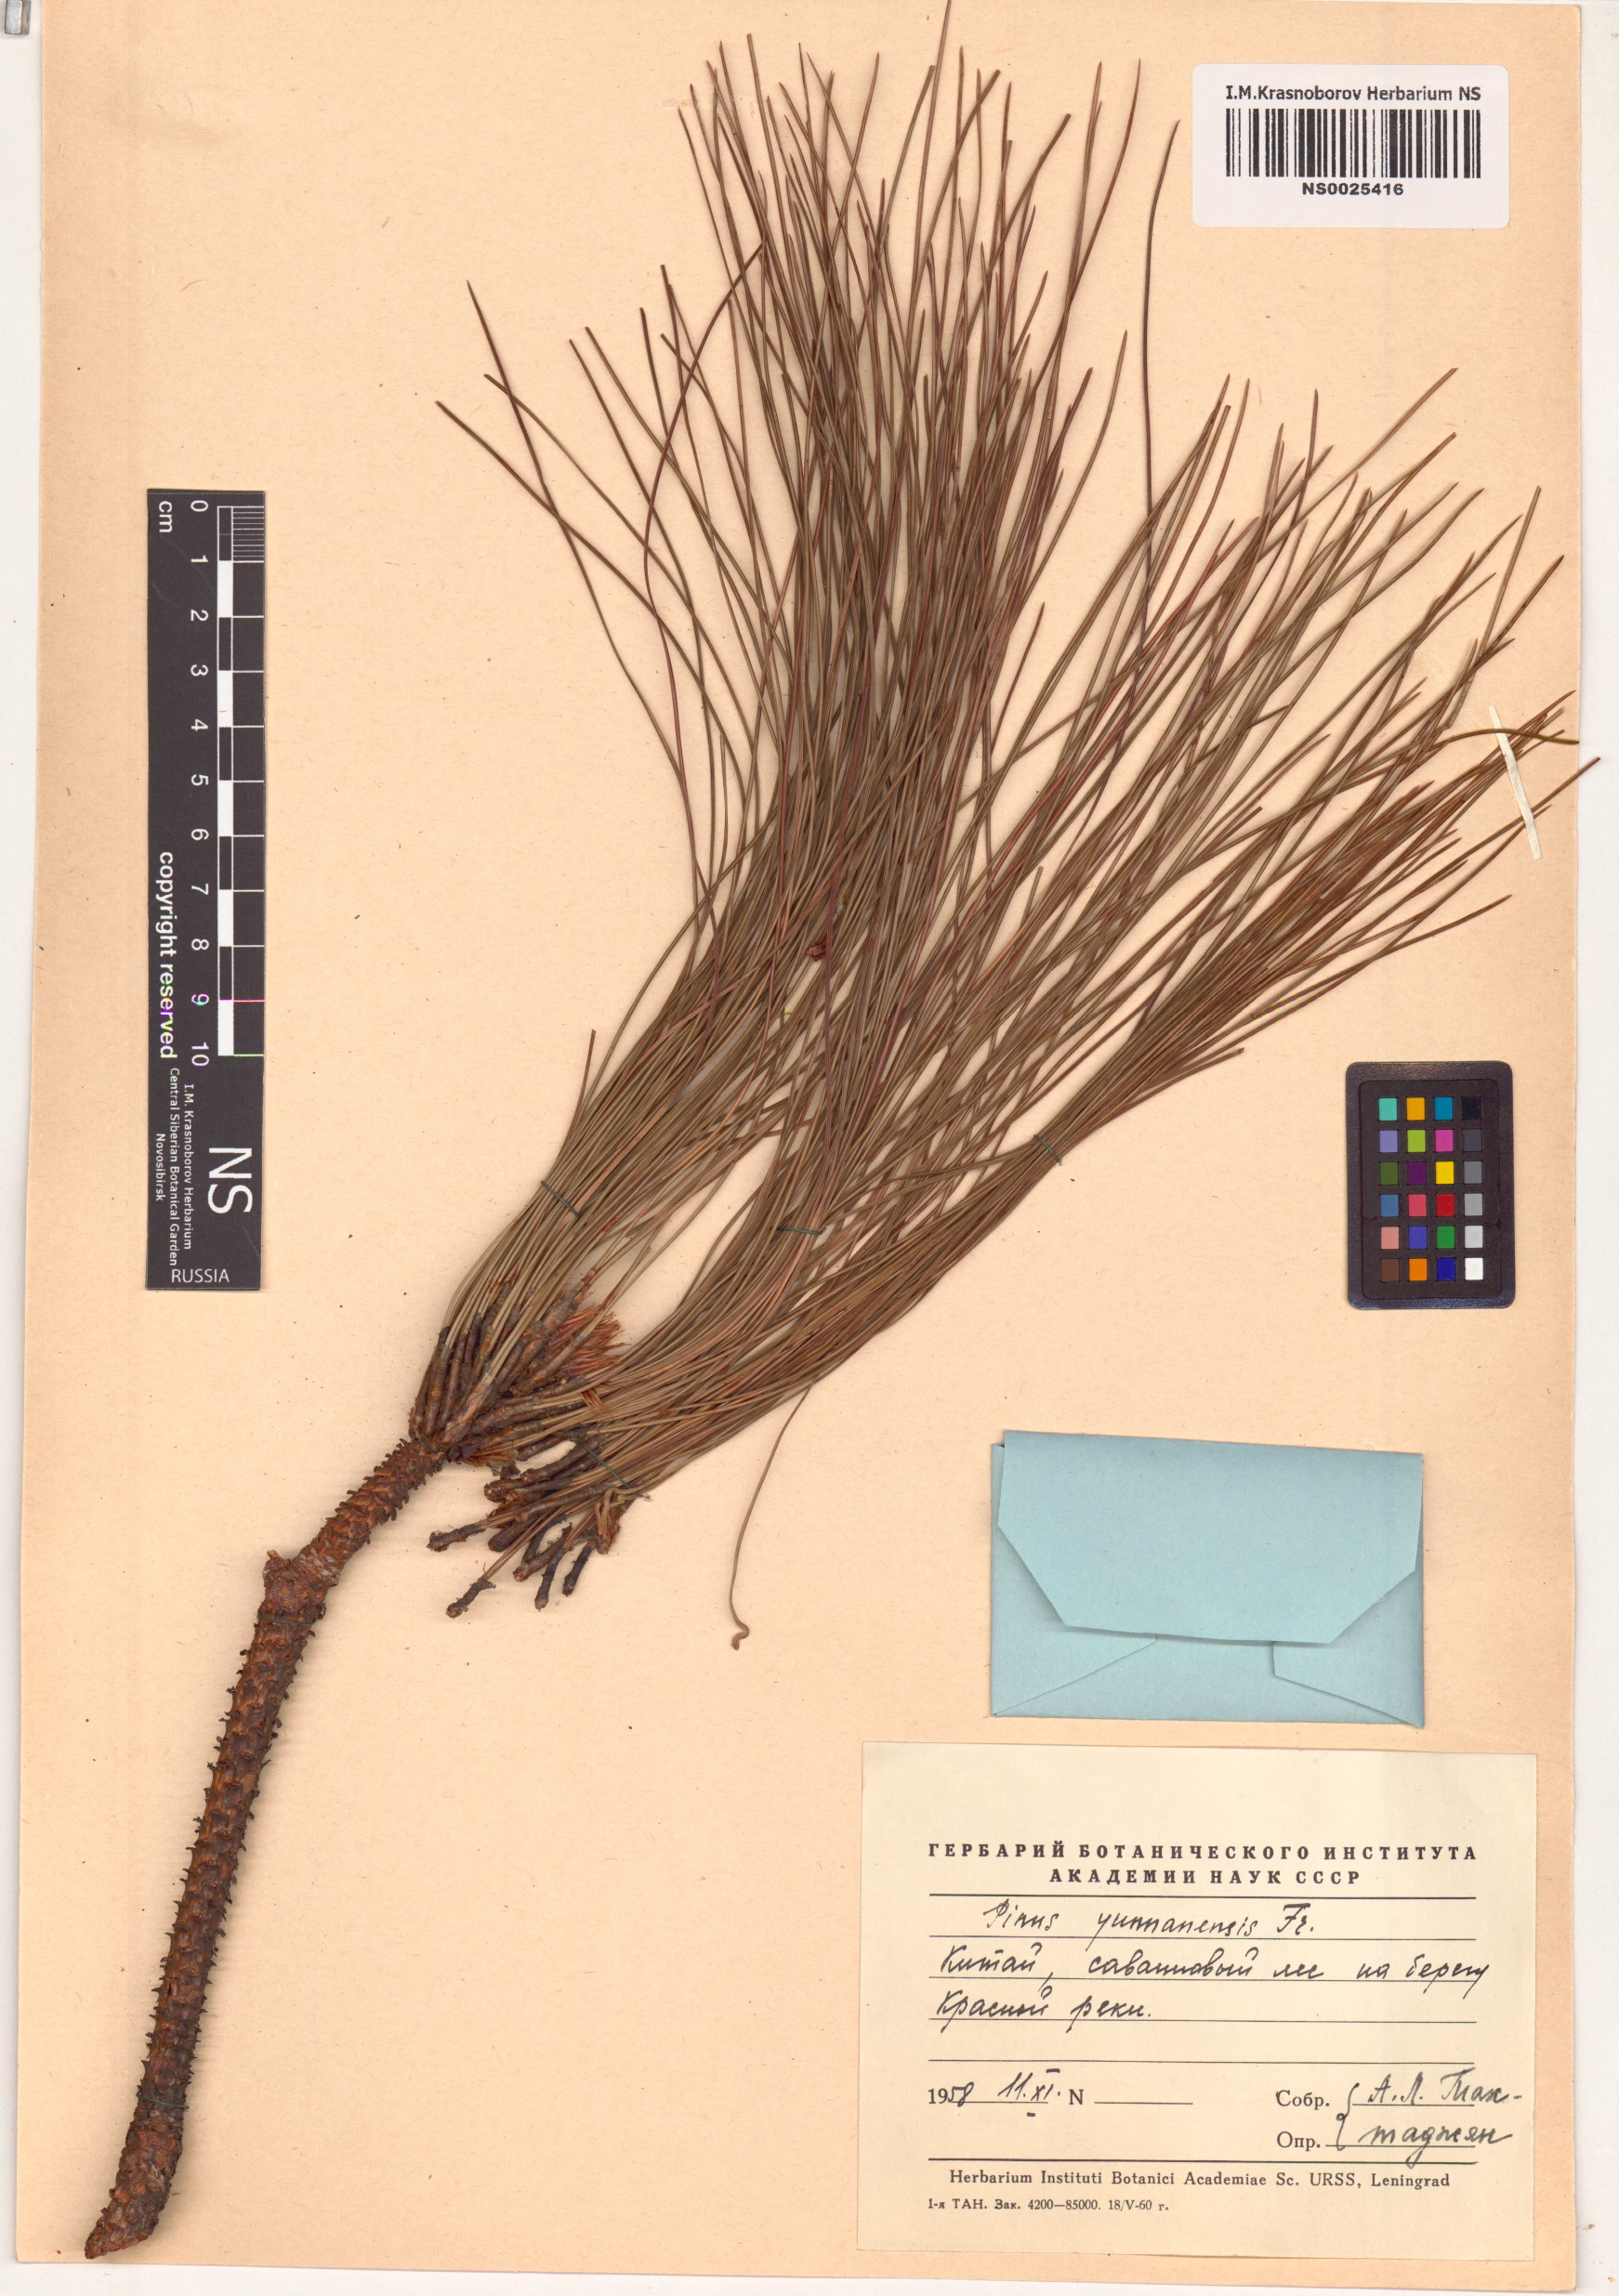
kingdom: Plantae
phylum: Tracheophyta
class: Pinopsida
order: Pinales
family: Pinaceae
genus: Pinus
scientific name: Pinus yunnanensis
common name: Yunnan pine
